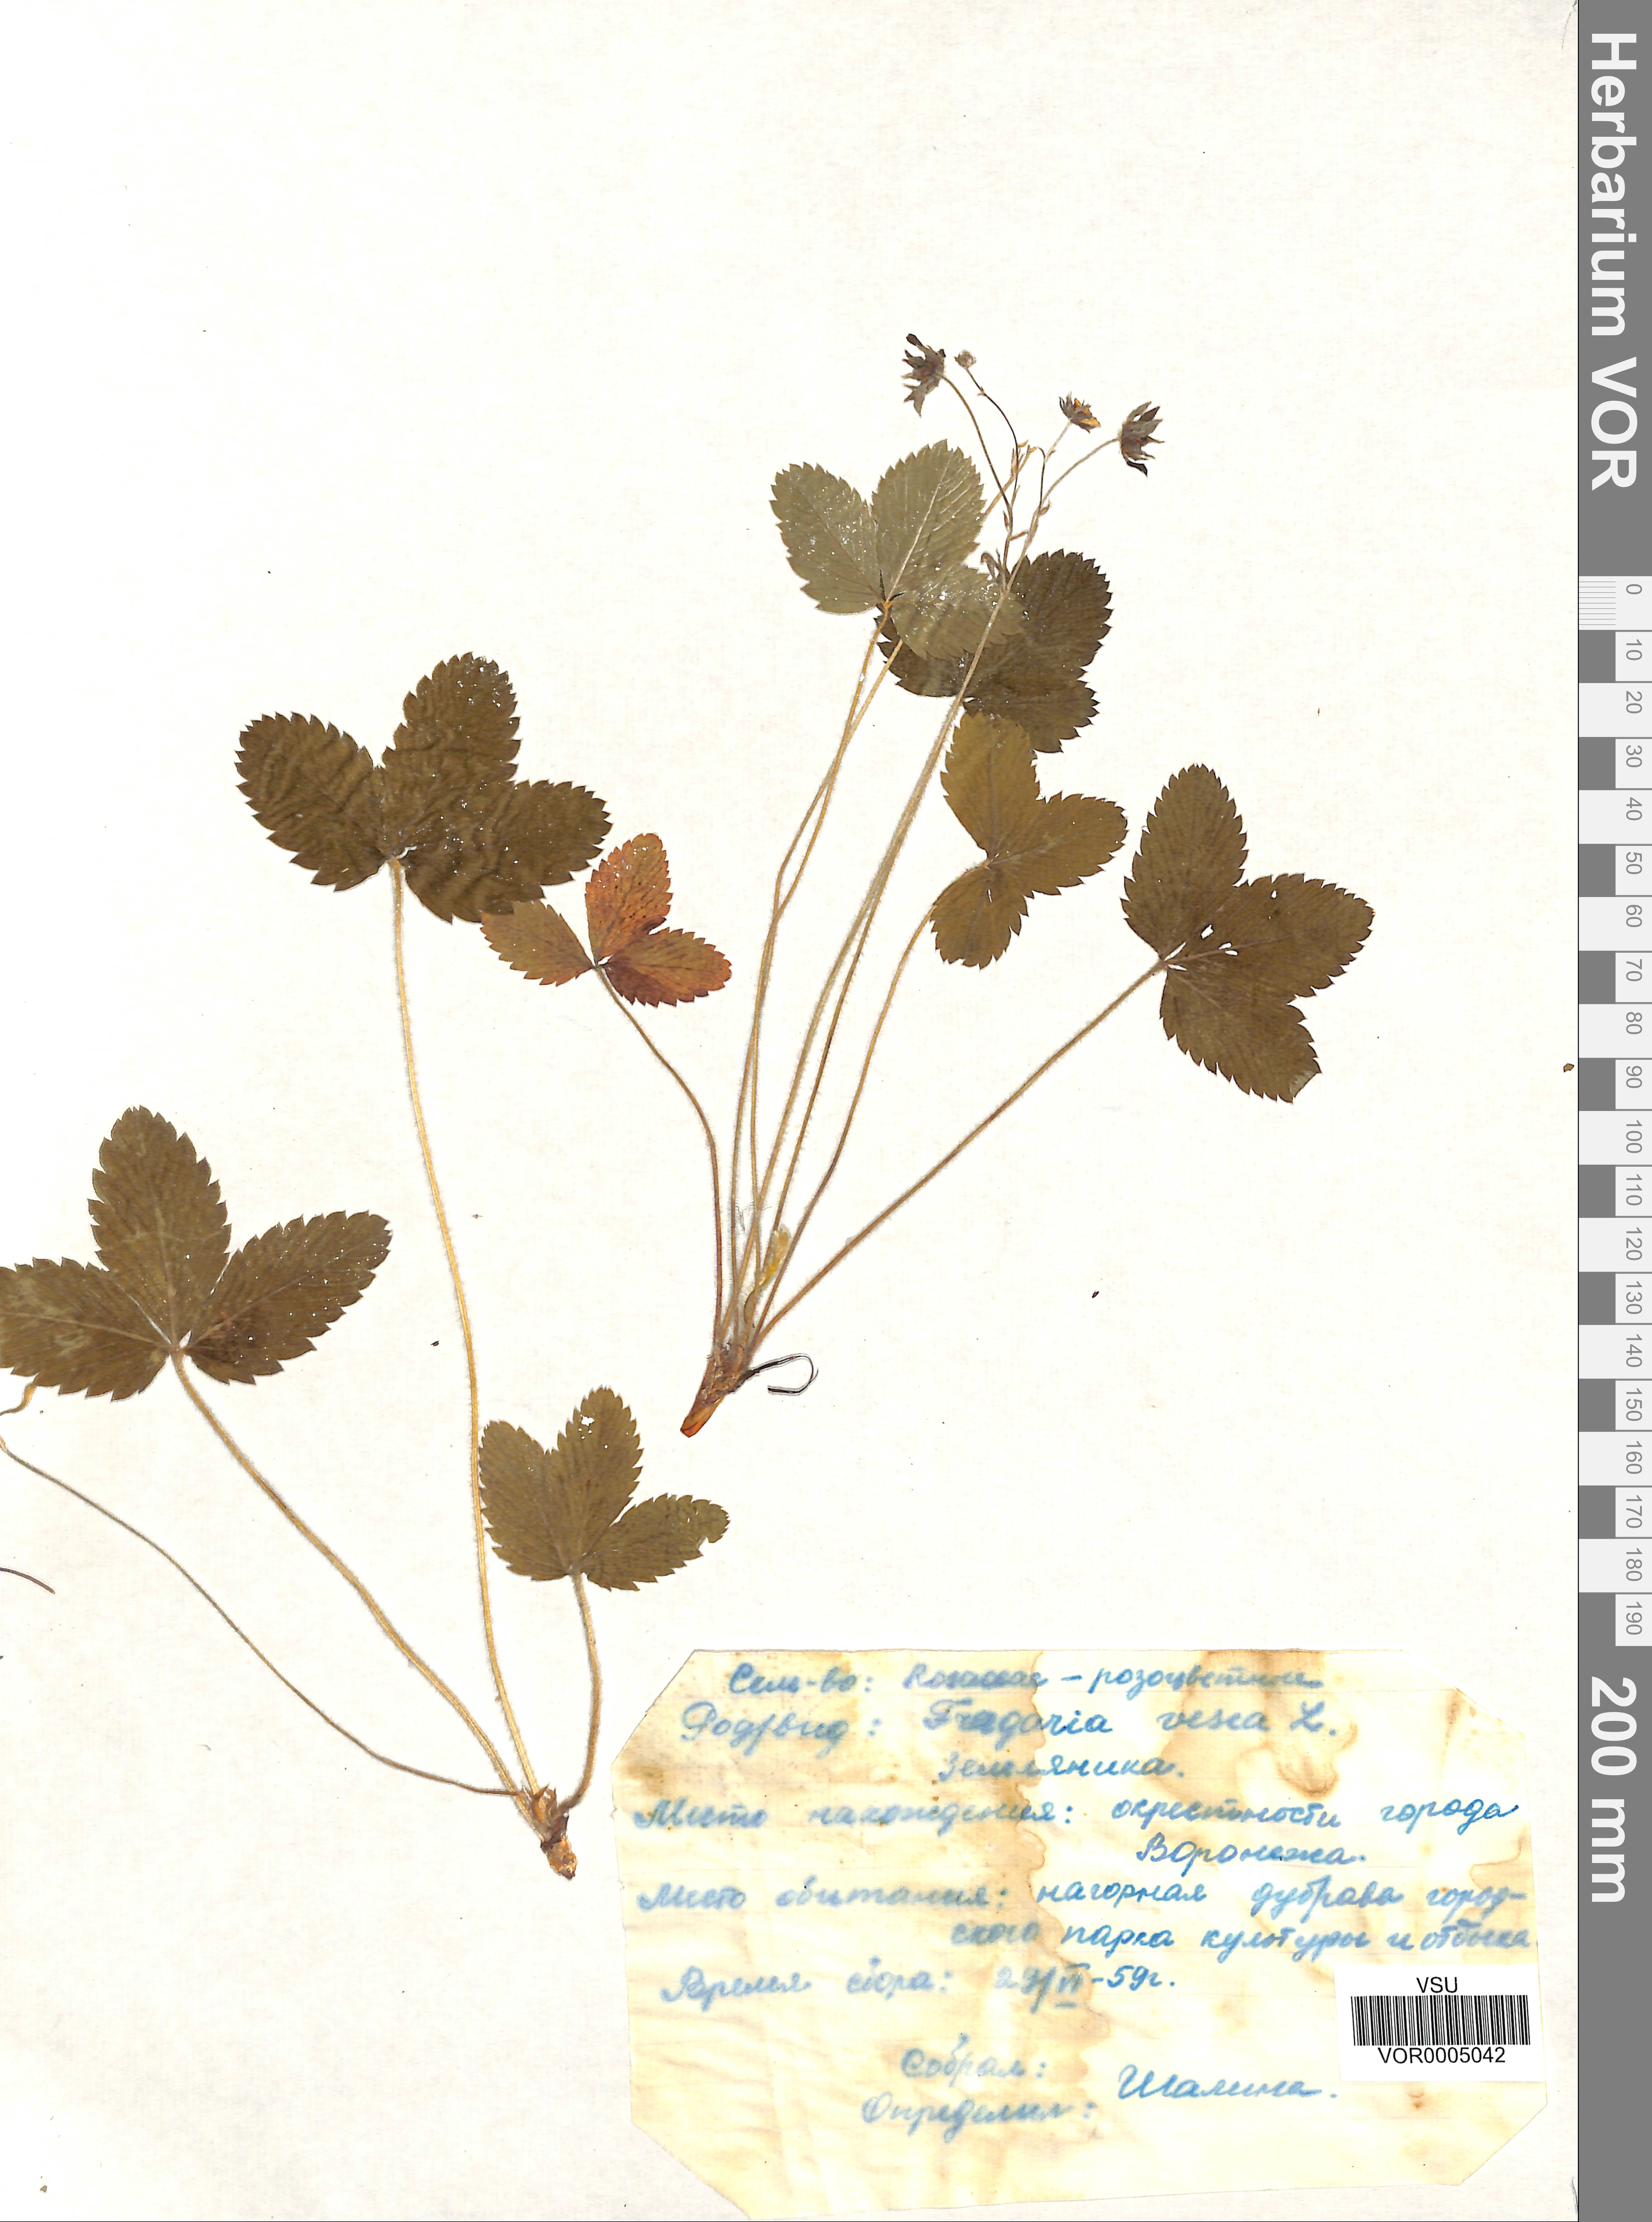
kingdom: Plantae
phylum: Tracheophyta
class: Magnoliopsida
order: Rosales
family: Rosaceae
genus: Fragaria
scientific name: Fragaria vesca
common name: Wild strawberry
